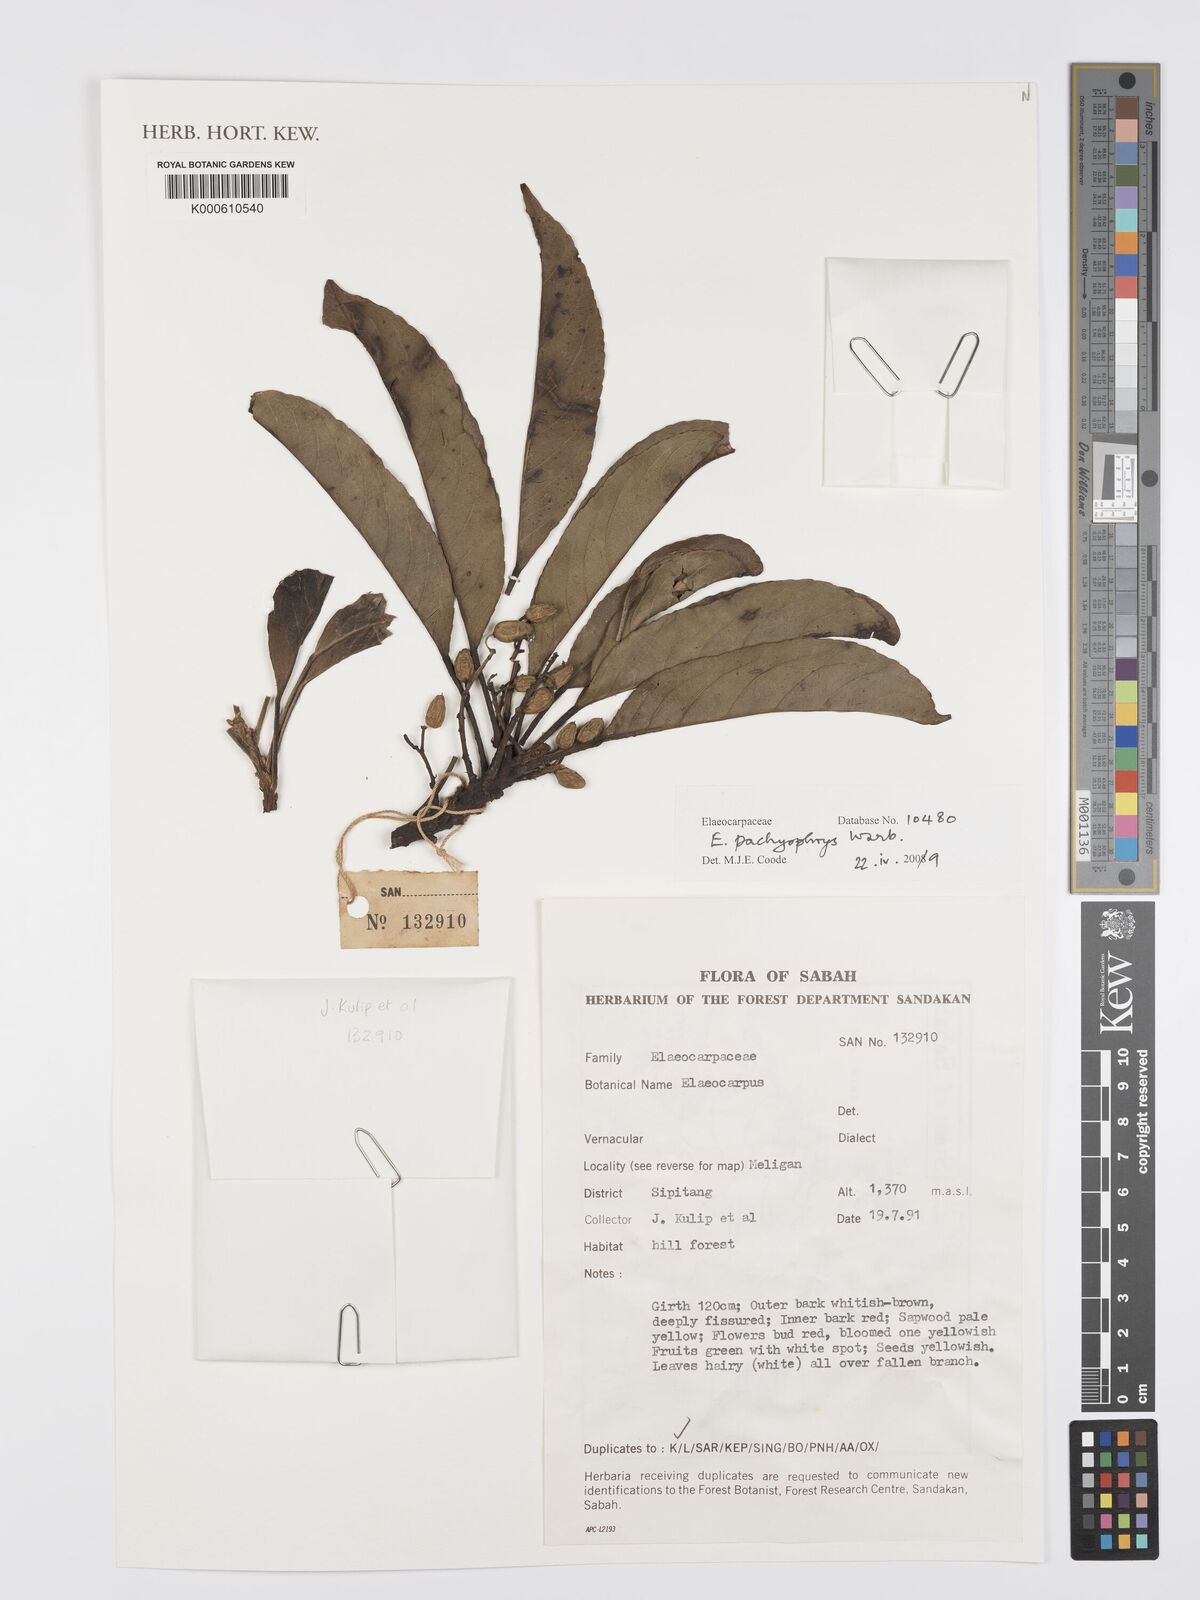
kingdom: Plantae
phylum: Tracheophyta
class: Magnoliopsida
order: Oxalidales
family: Elaeocarpaceae
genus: Elaeocarpus
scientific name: Elaeocarpus pachyophrys
